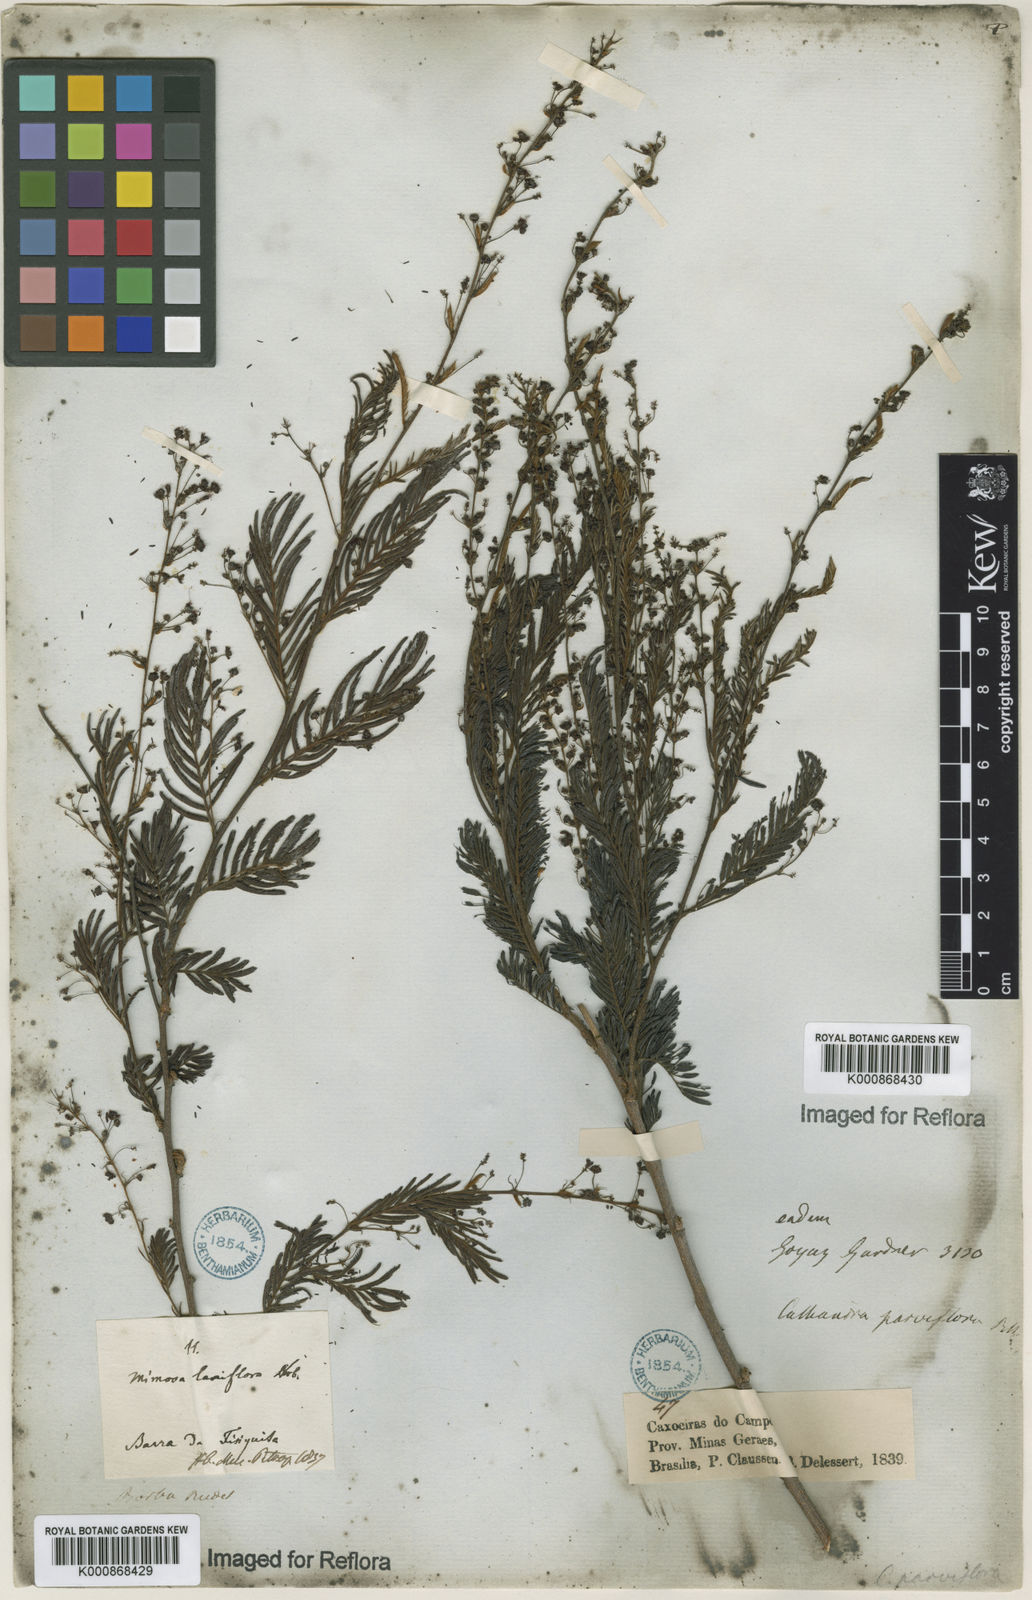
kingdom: Plantae
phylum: Tracheophyta
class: Magnoliopsida
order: Fabales
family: Fabaceae
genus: Calliandra
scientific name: Calliandra parviflora
